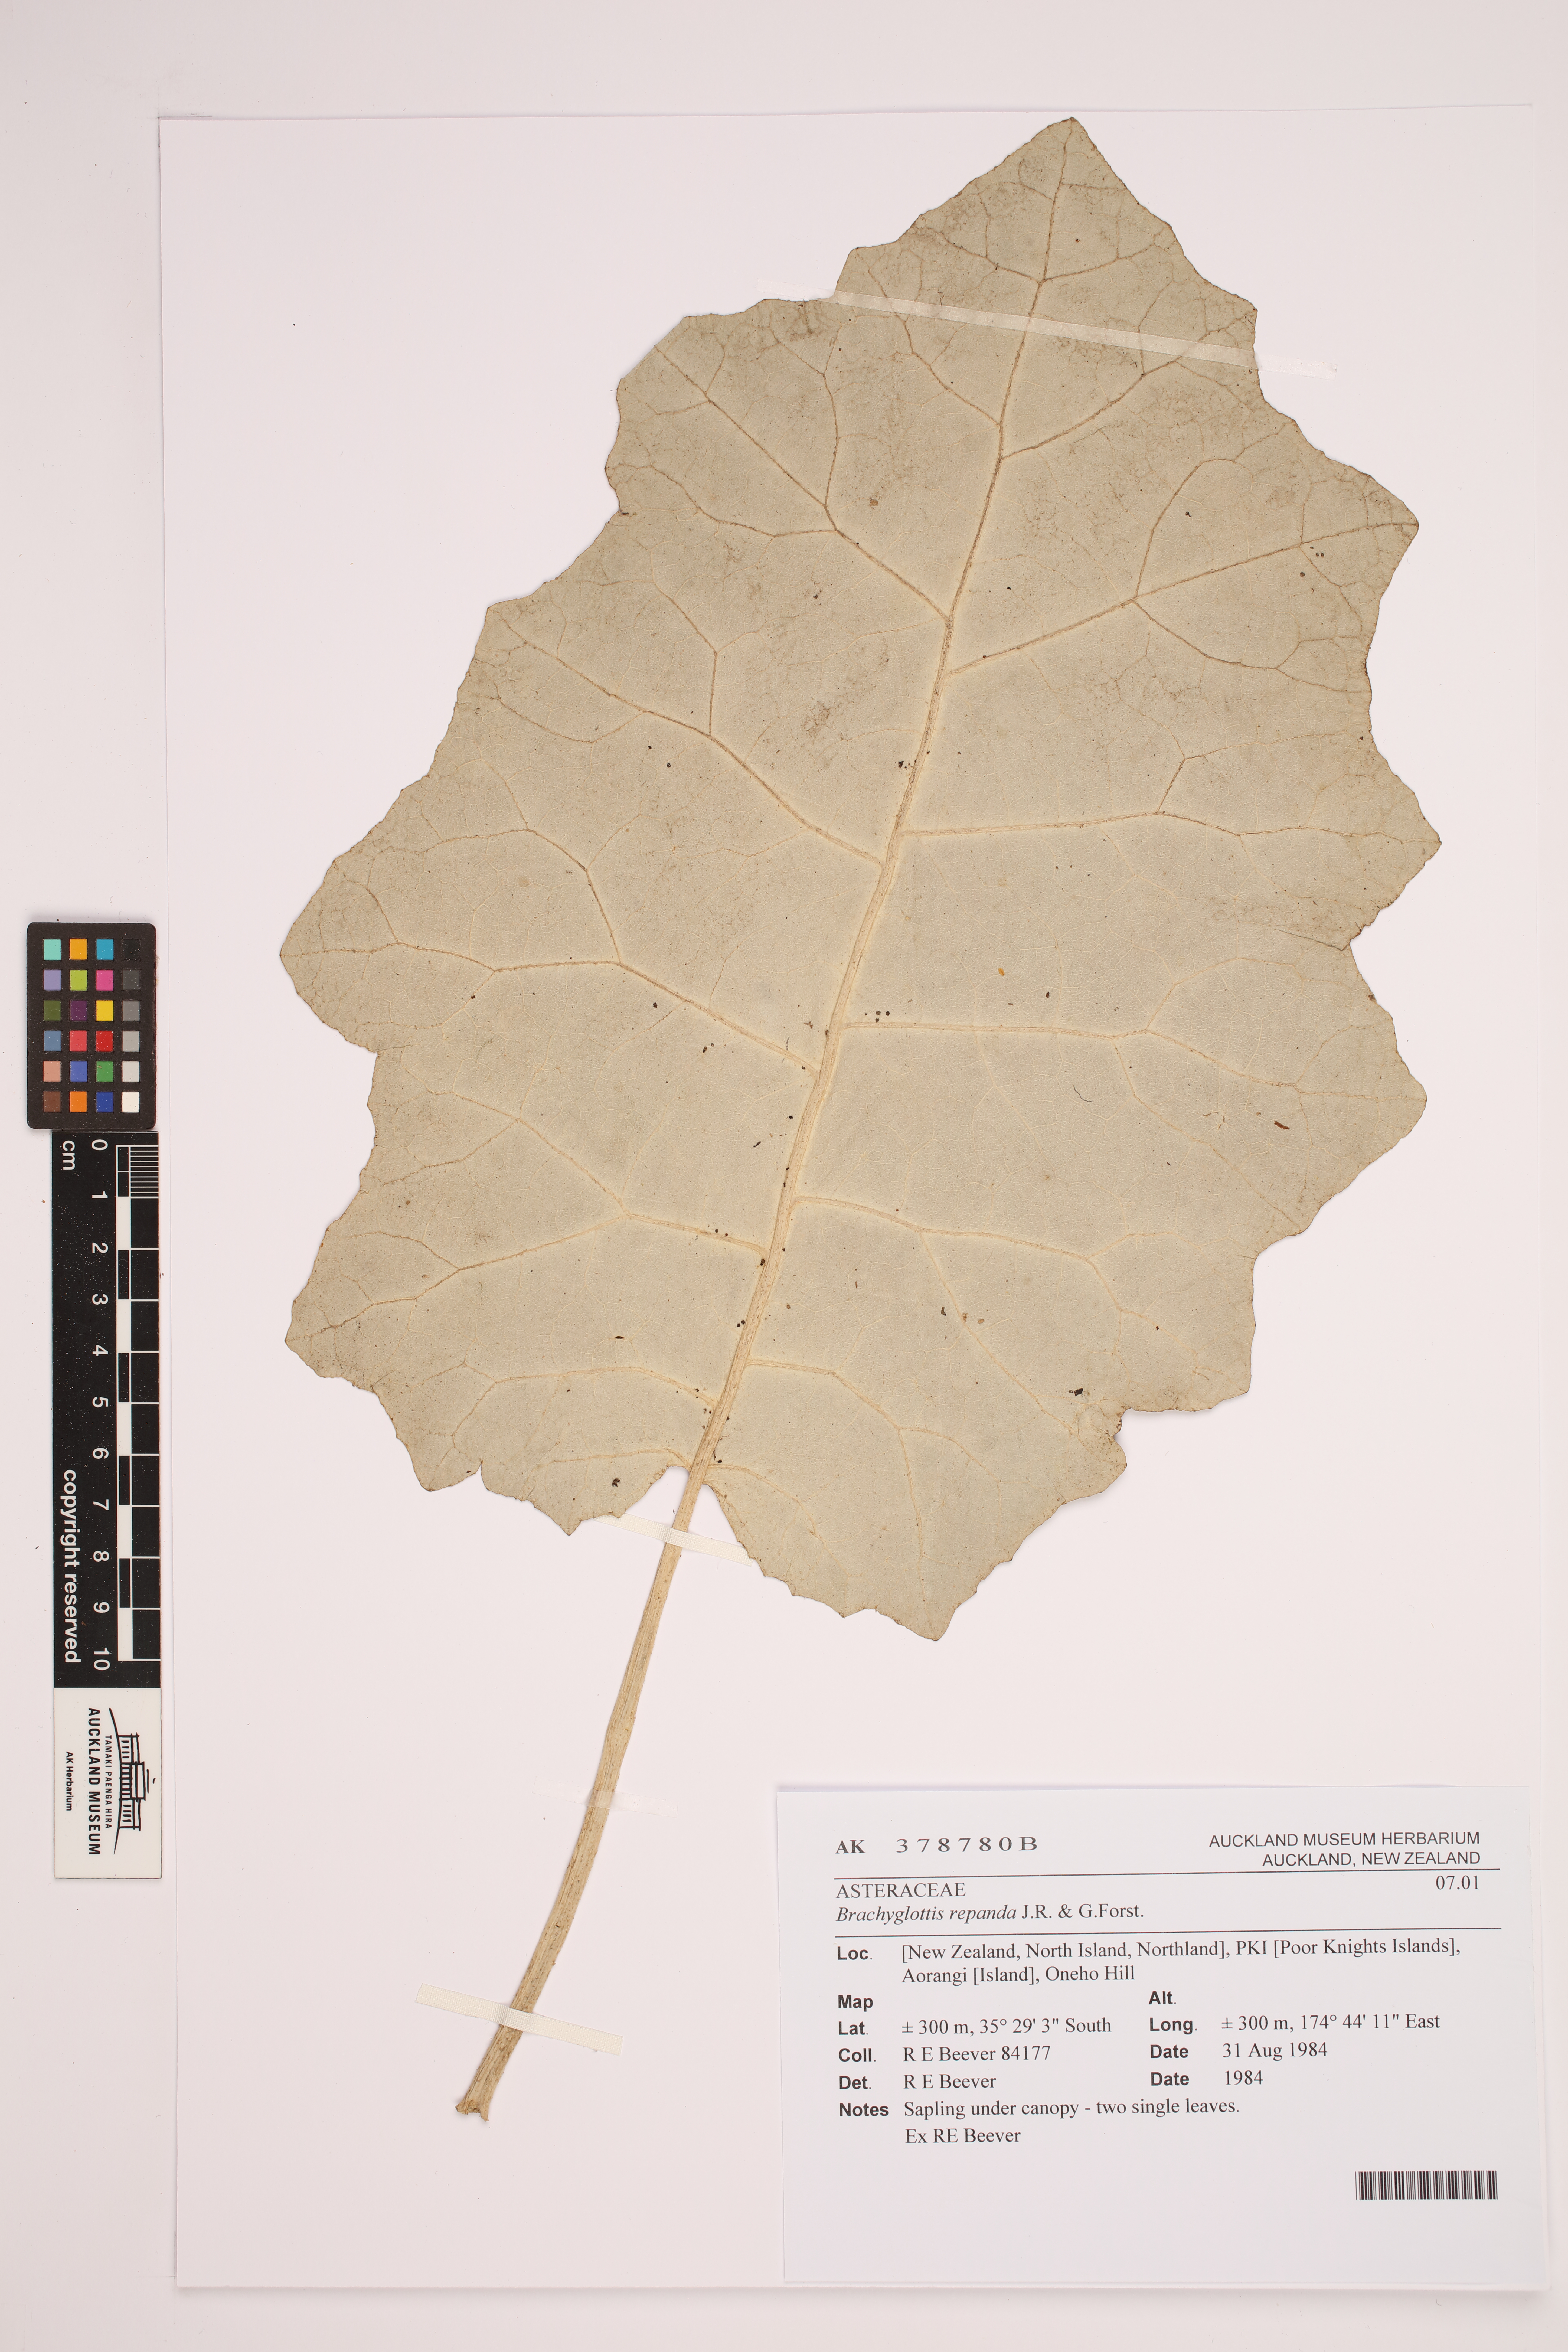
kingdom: Plantae
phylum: Tracheophyta
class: Magnoliopsida
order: Asterales
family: Asteraceae
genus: Brachyglottis
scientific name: Brachyglottis repanda
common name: Hedge ragwort
